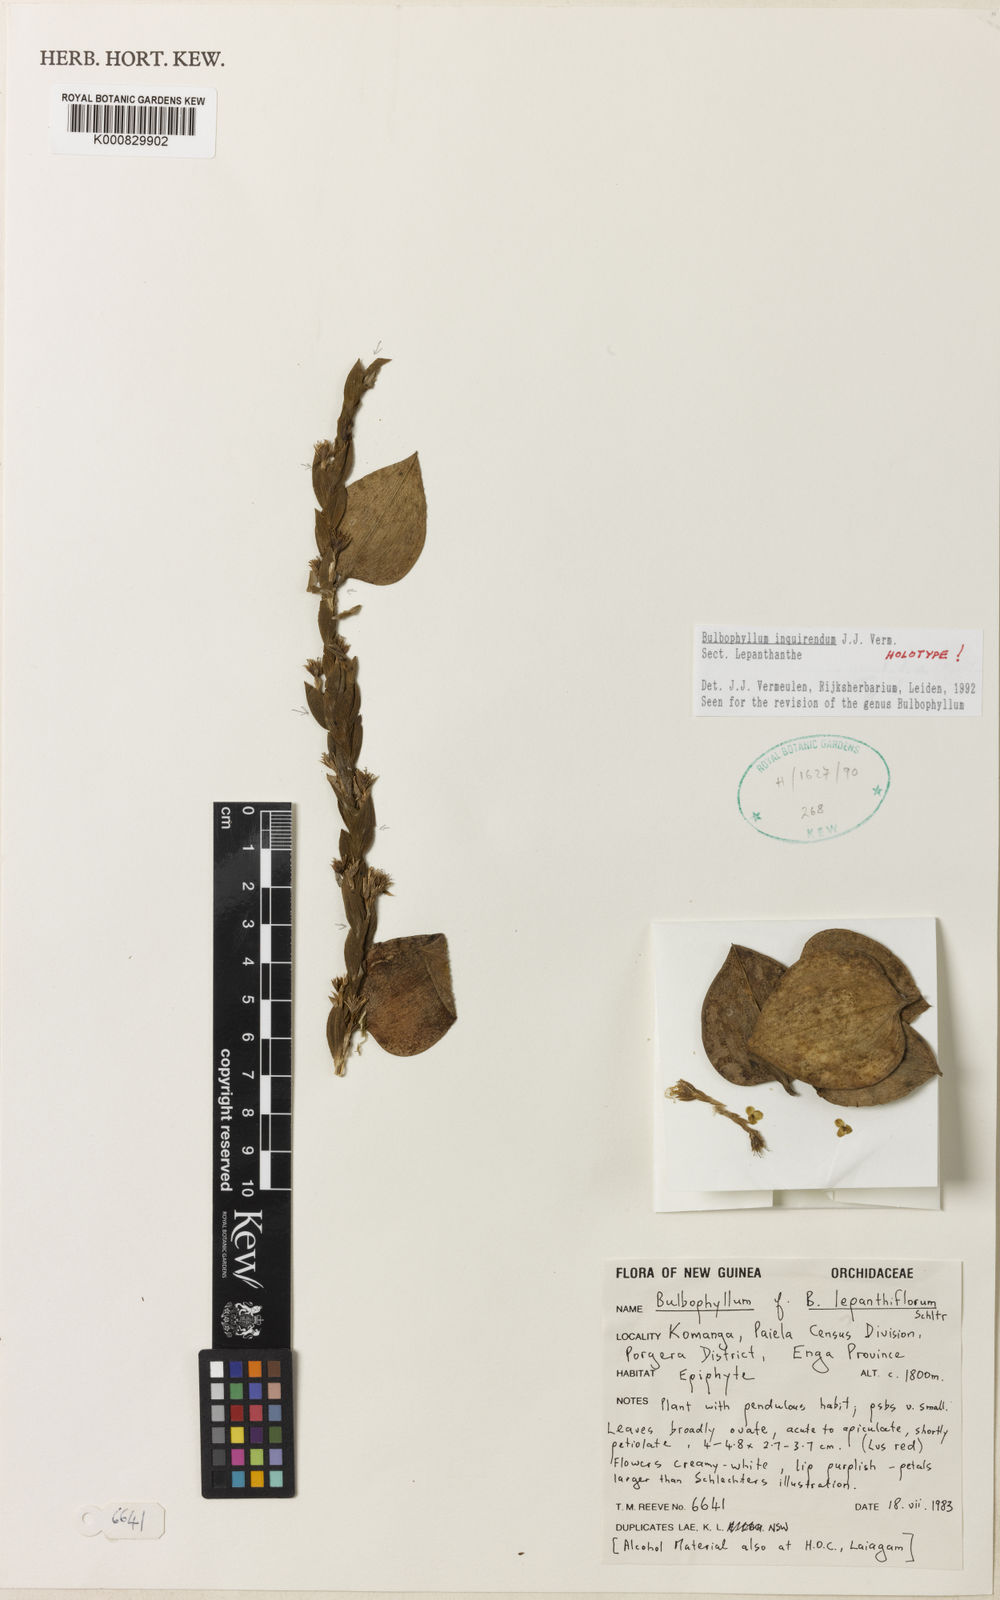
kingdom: Plantae
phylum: Tracheophyta
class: Liliopsida
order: Asparagales
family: Orchidaceae
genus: Bulbophyllum
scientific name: Bulbophyllum
